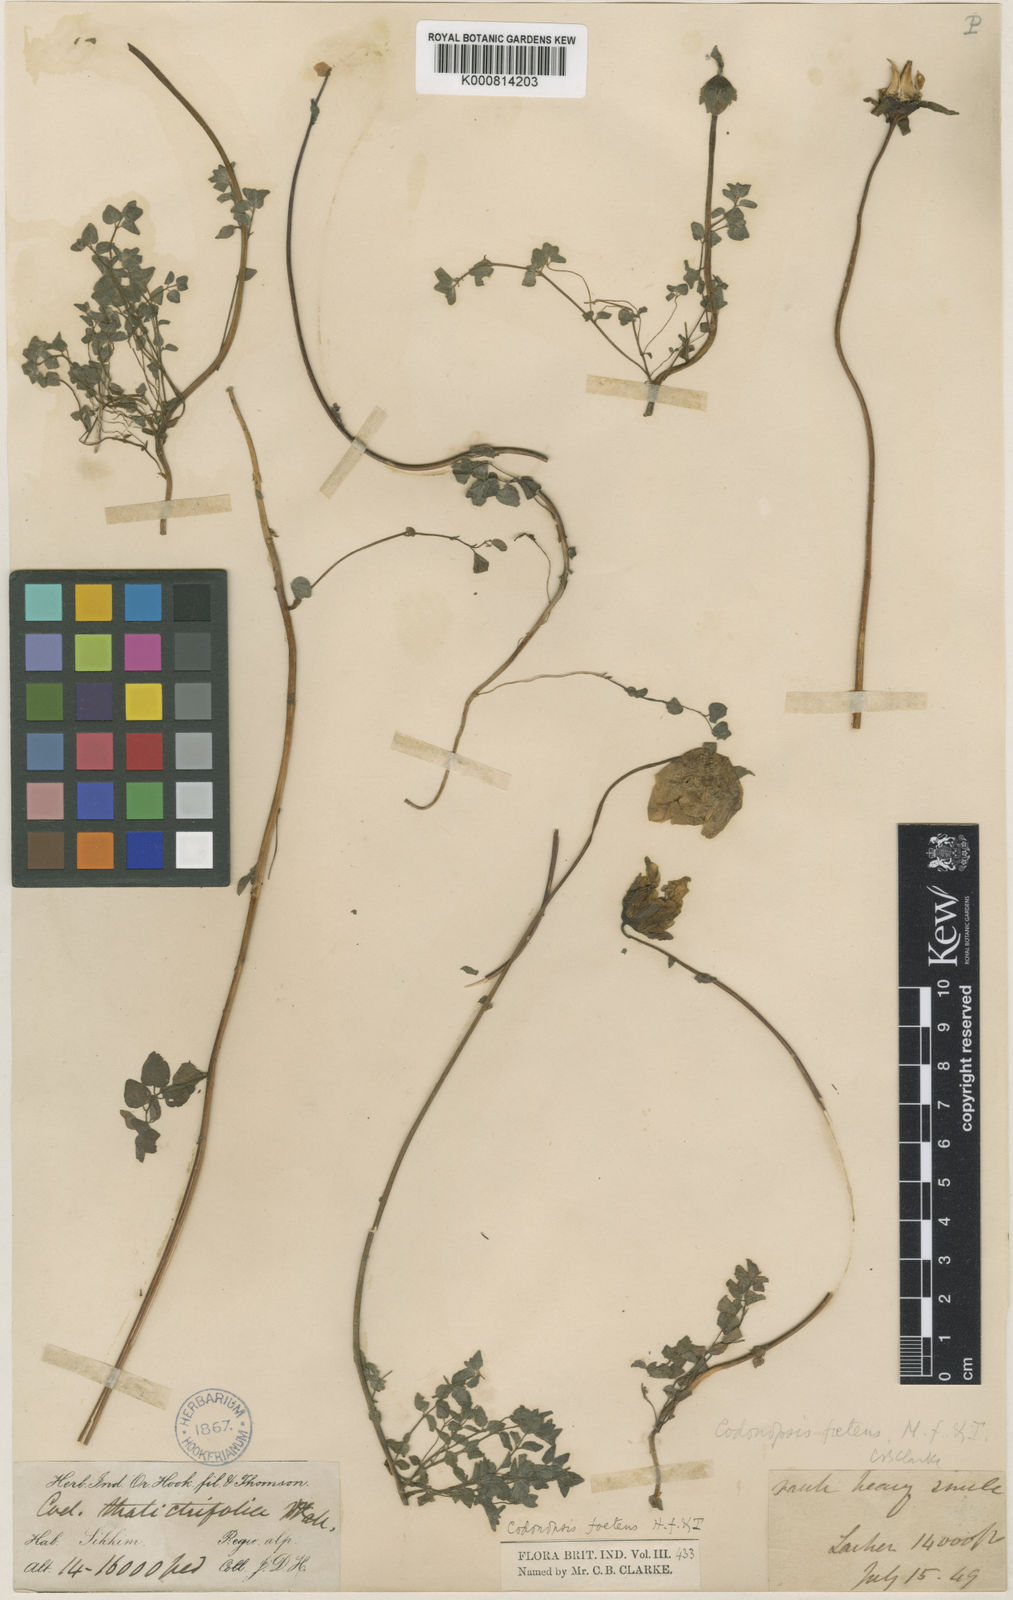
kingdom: Plantae
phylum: Tracheophyta
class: Magnoliopsida
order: Asterales
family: Campanulaceae
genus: Codonopsis
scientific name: Codonopsis foetens
